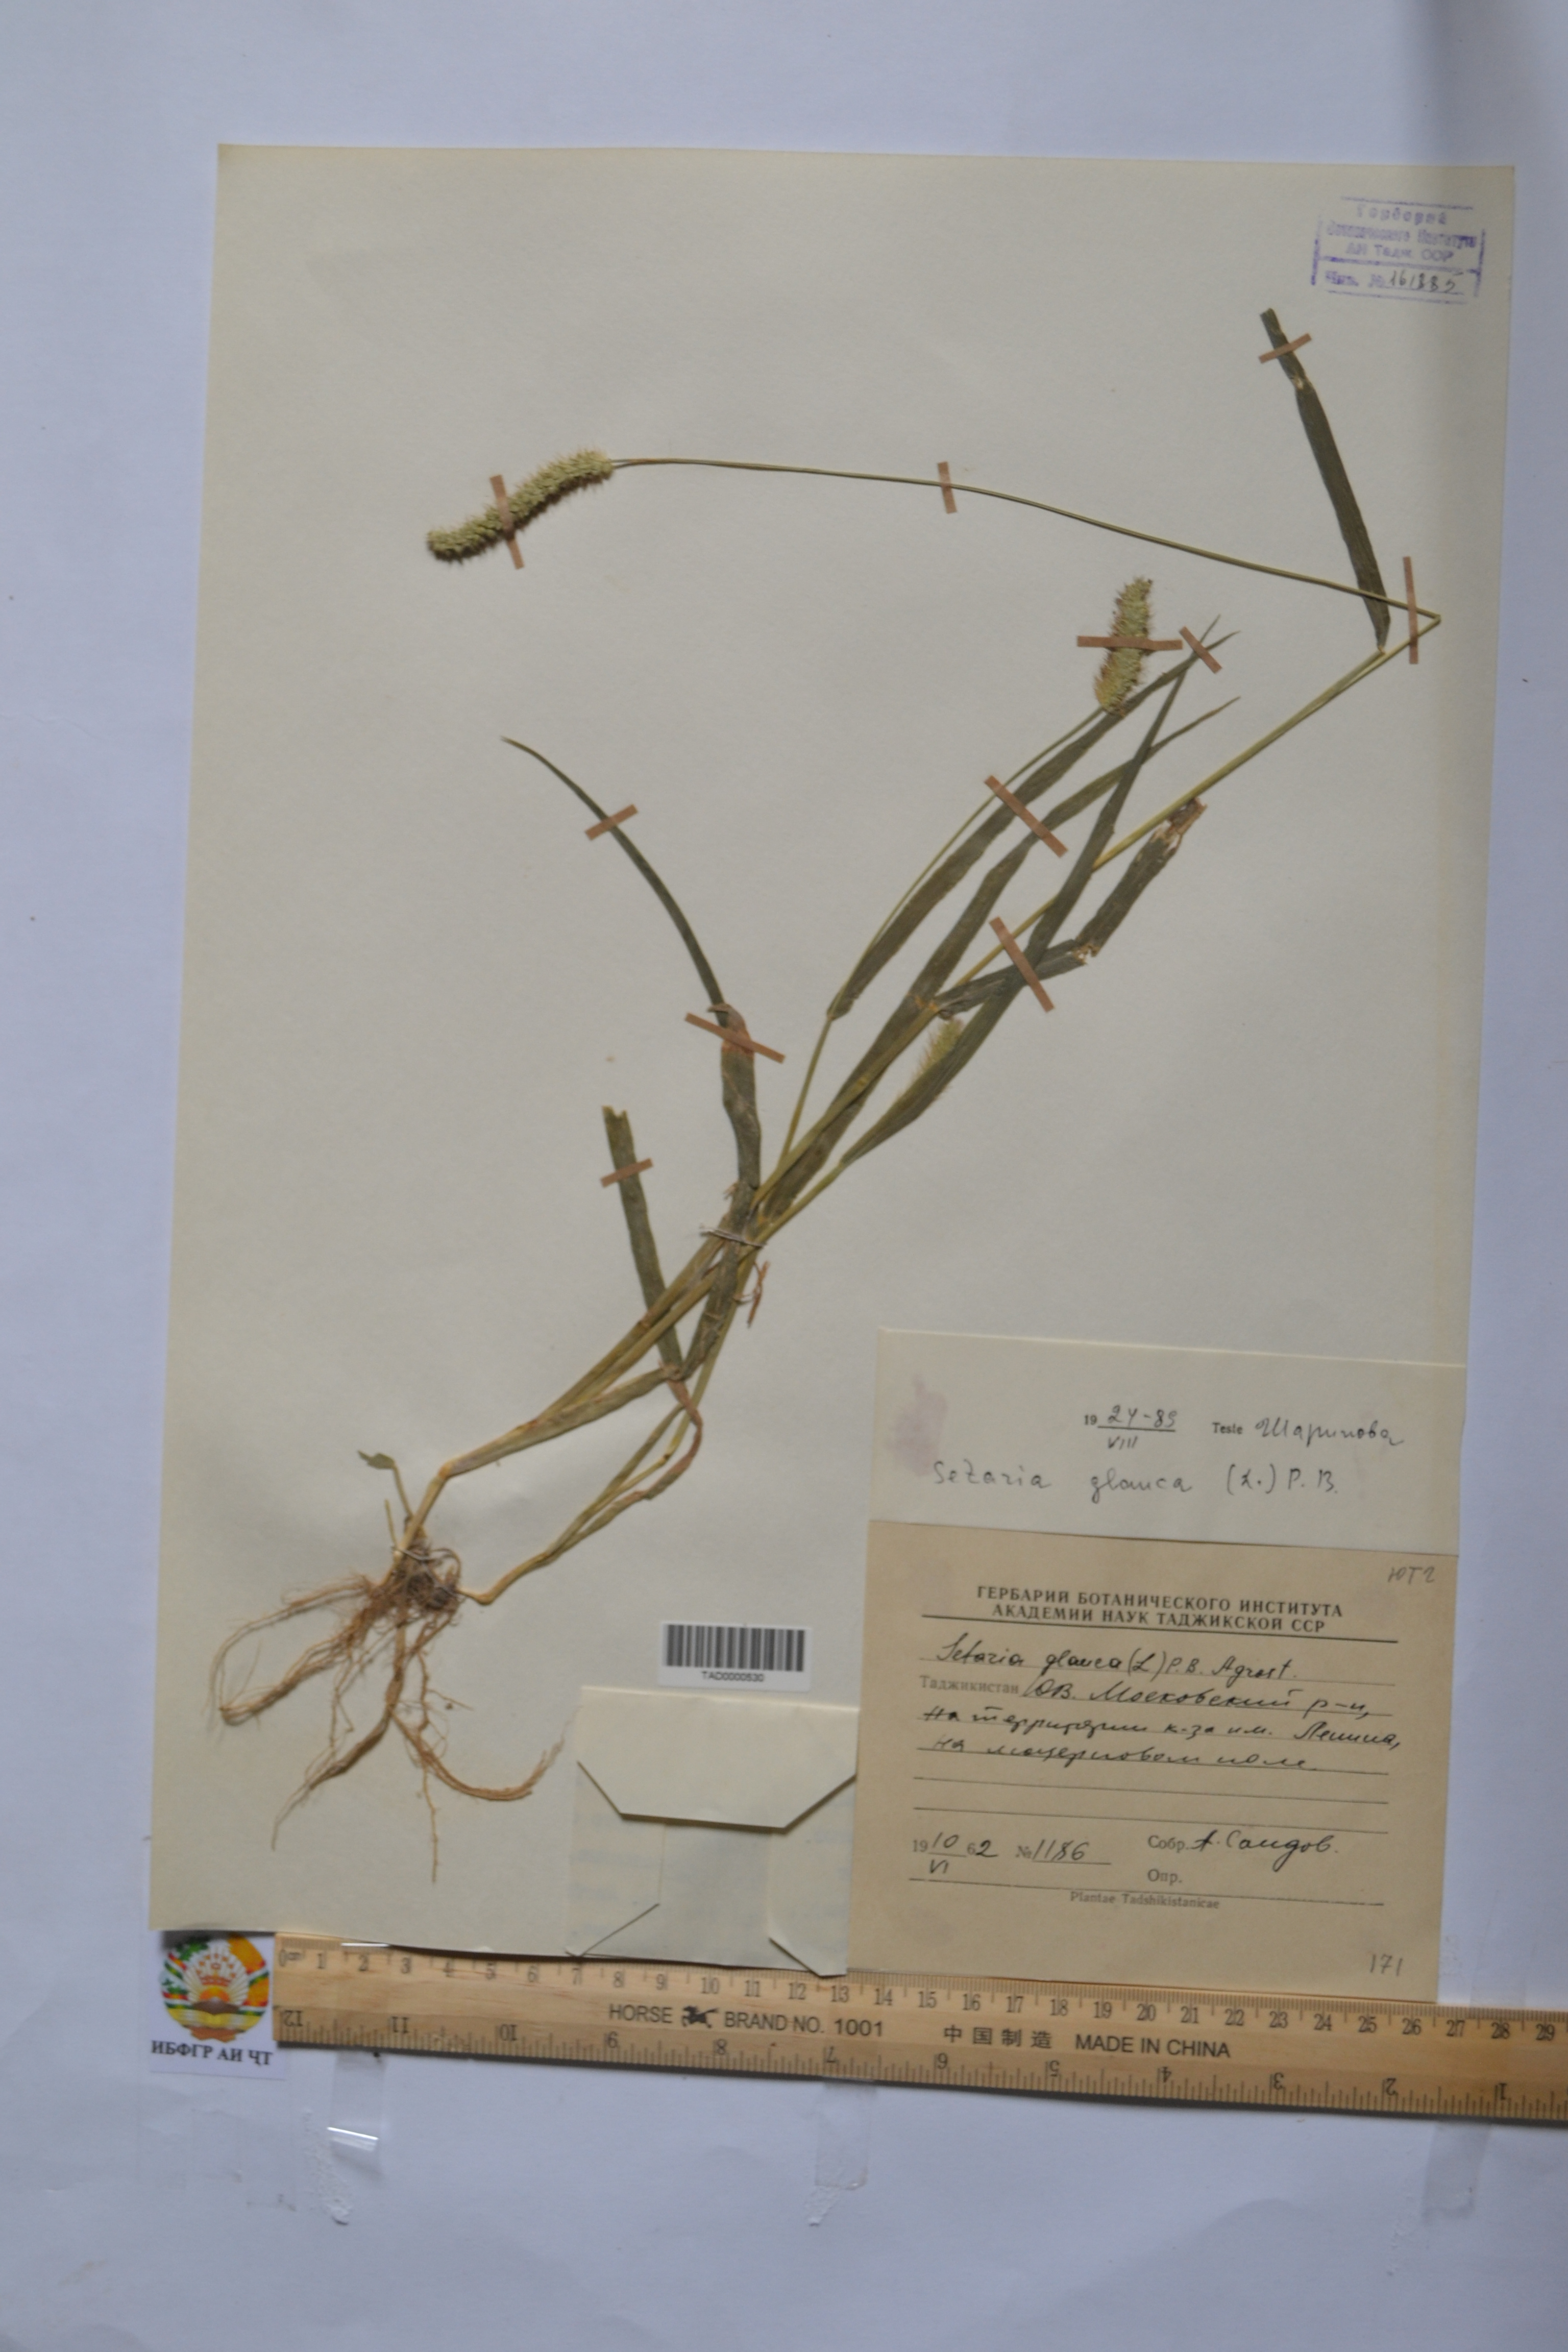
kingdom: Plantae
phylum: Tracheophyta
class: Liliopsida
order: Poales
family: Poaceae
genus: Cenchrus
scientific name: Cenchrus americanus
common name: Pearl millet
